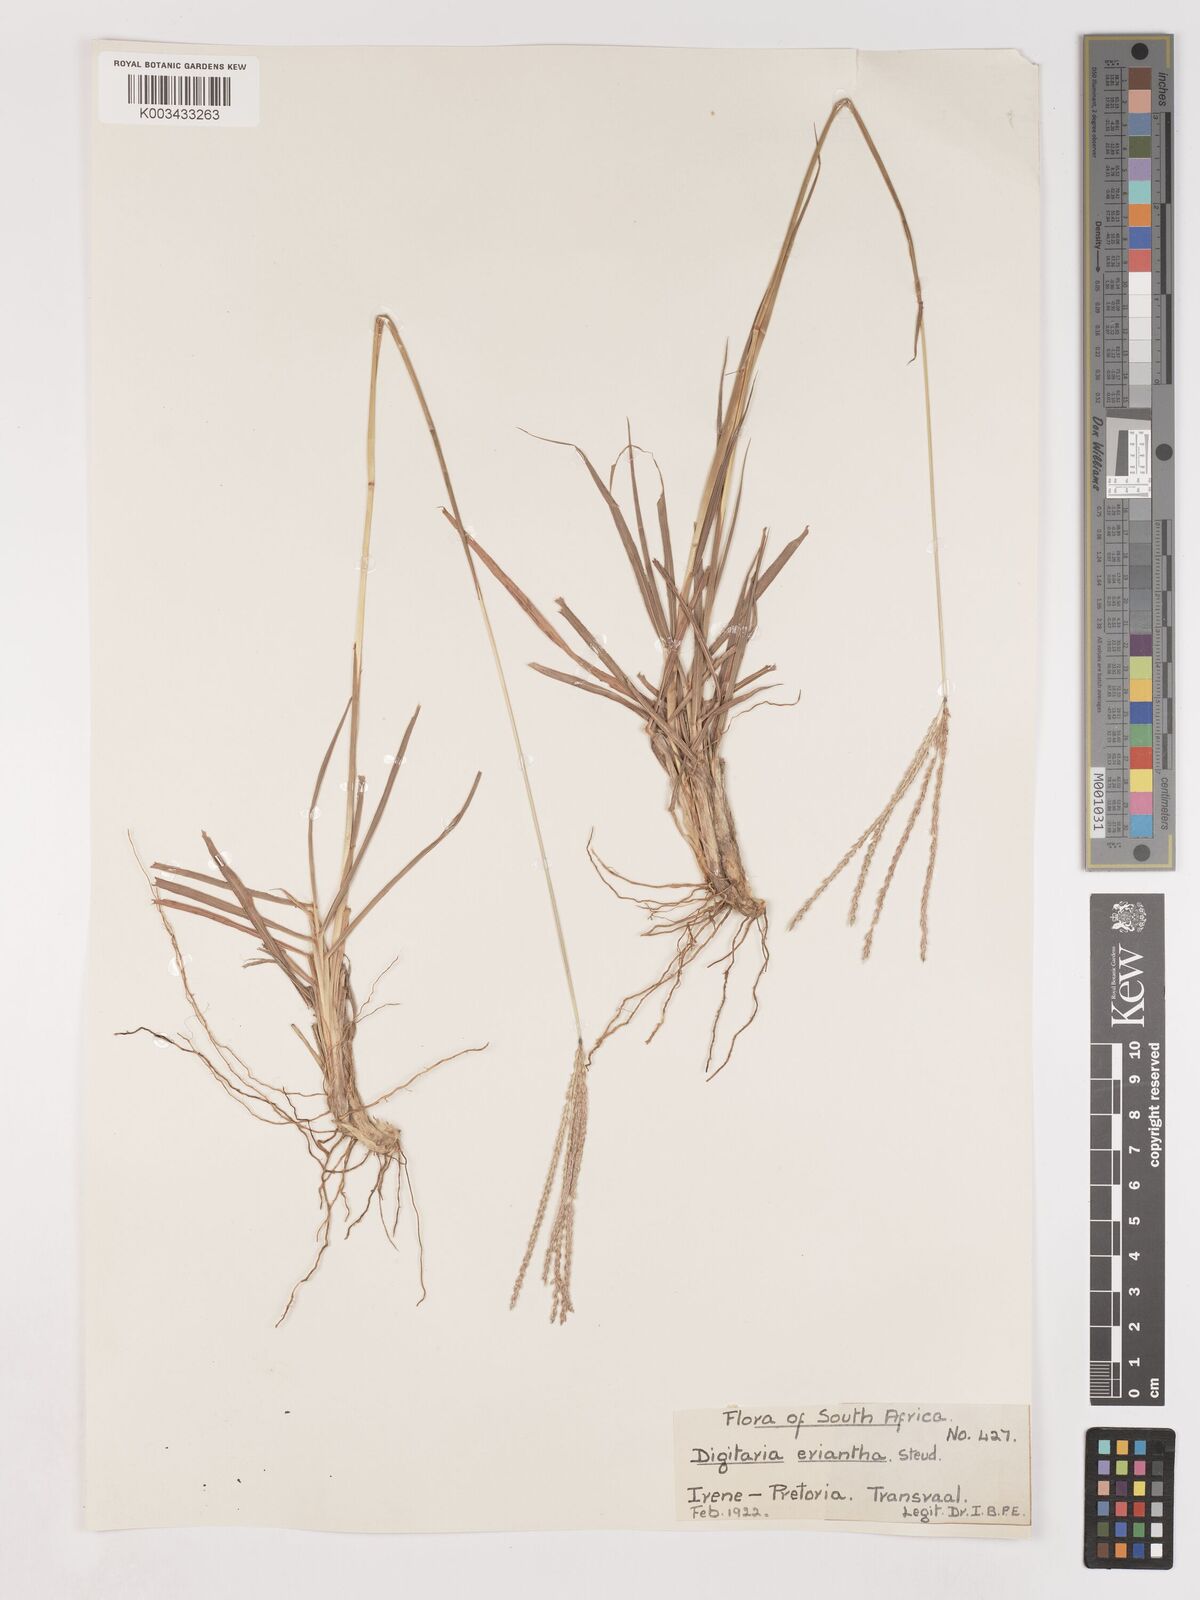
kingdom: Plantae
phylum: Tracheophyta
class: Liliopsida
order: Poales
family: Poaceae
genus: Digitaria
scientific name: Digitaria eriantha
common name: Digitgrass
